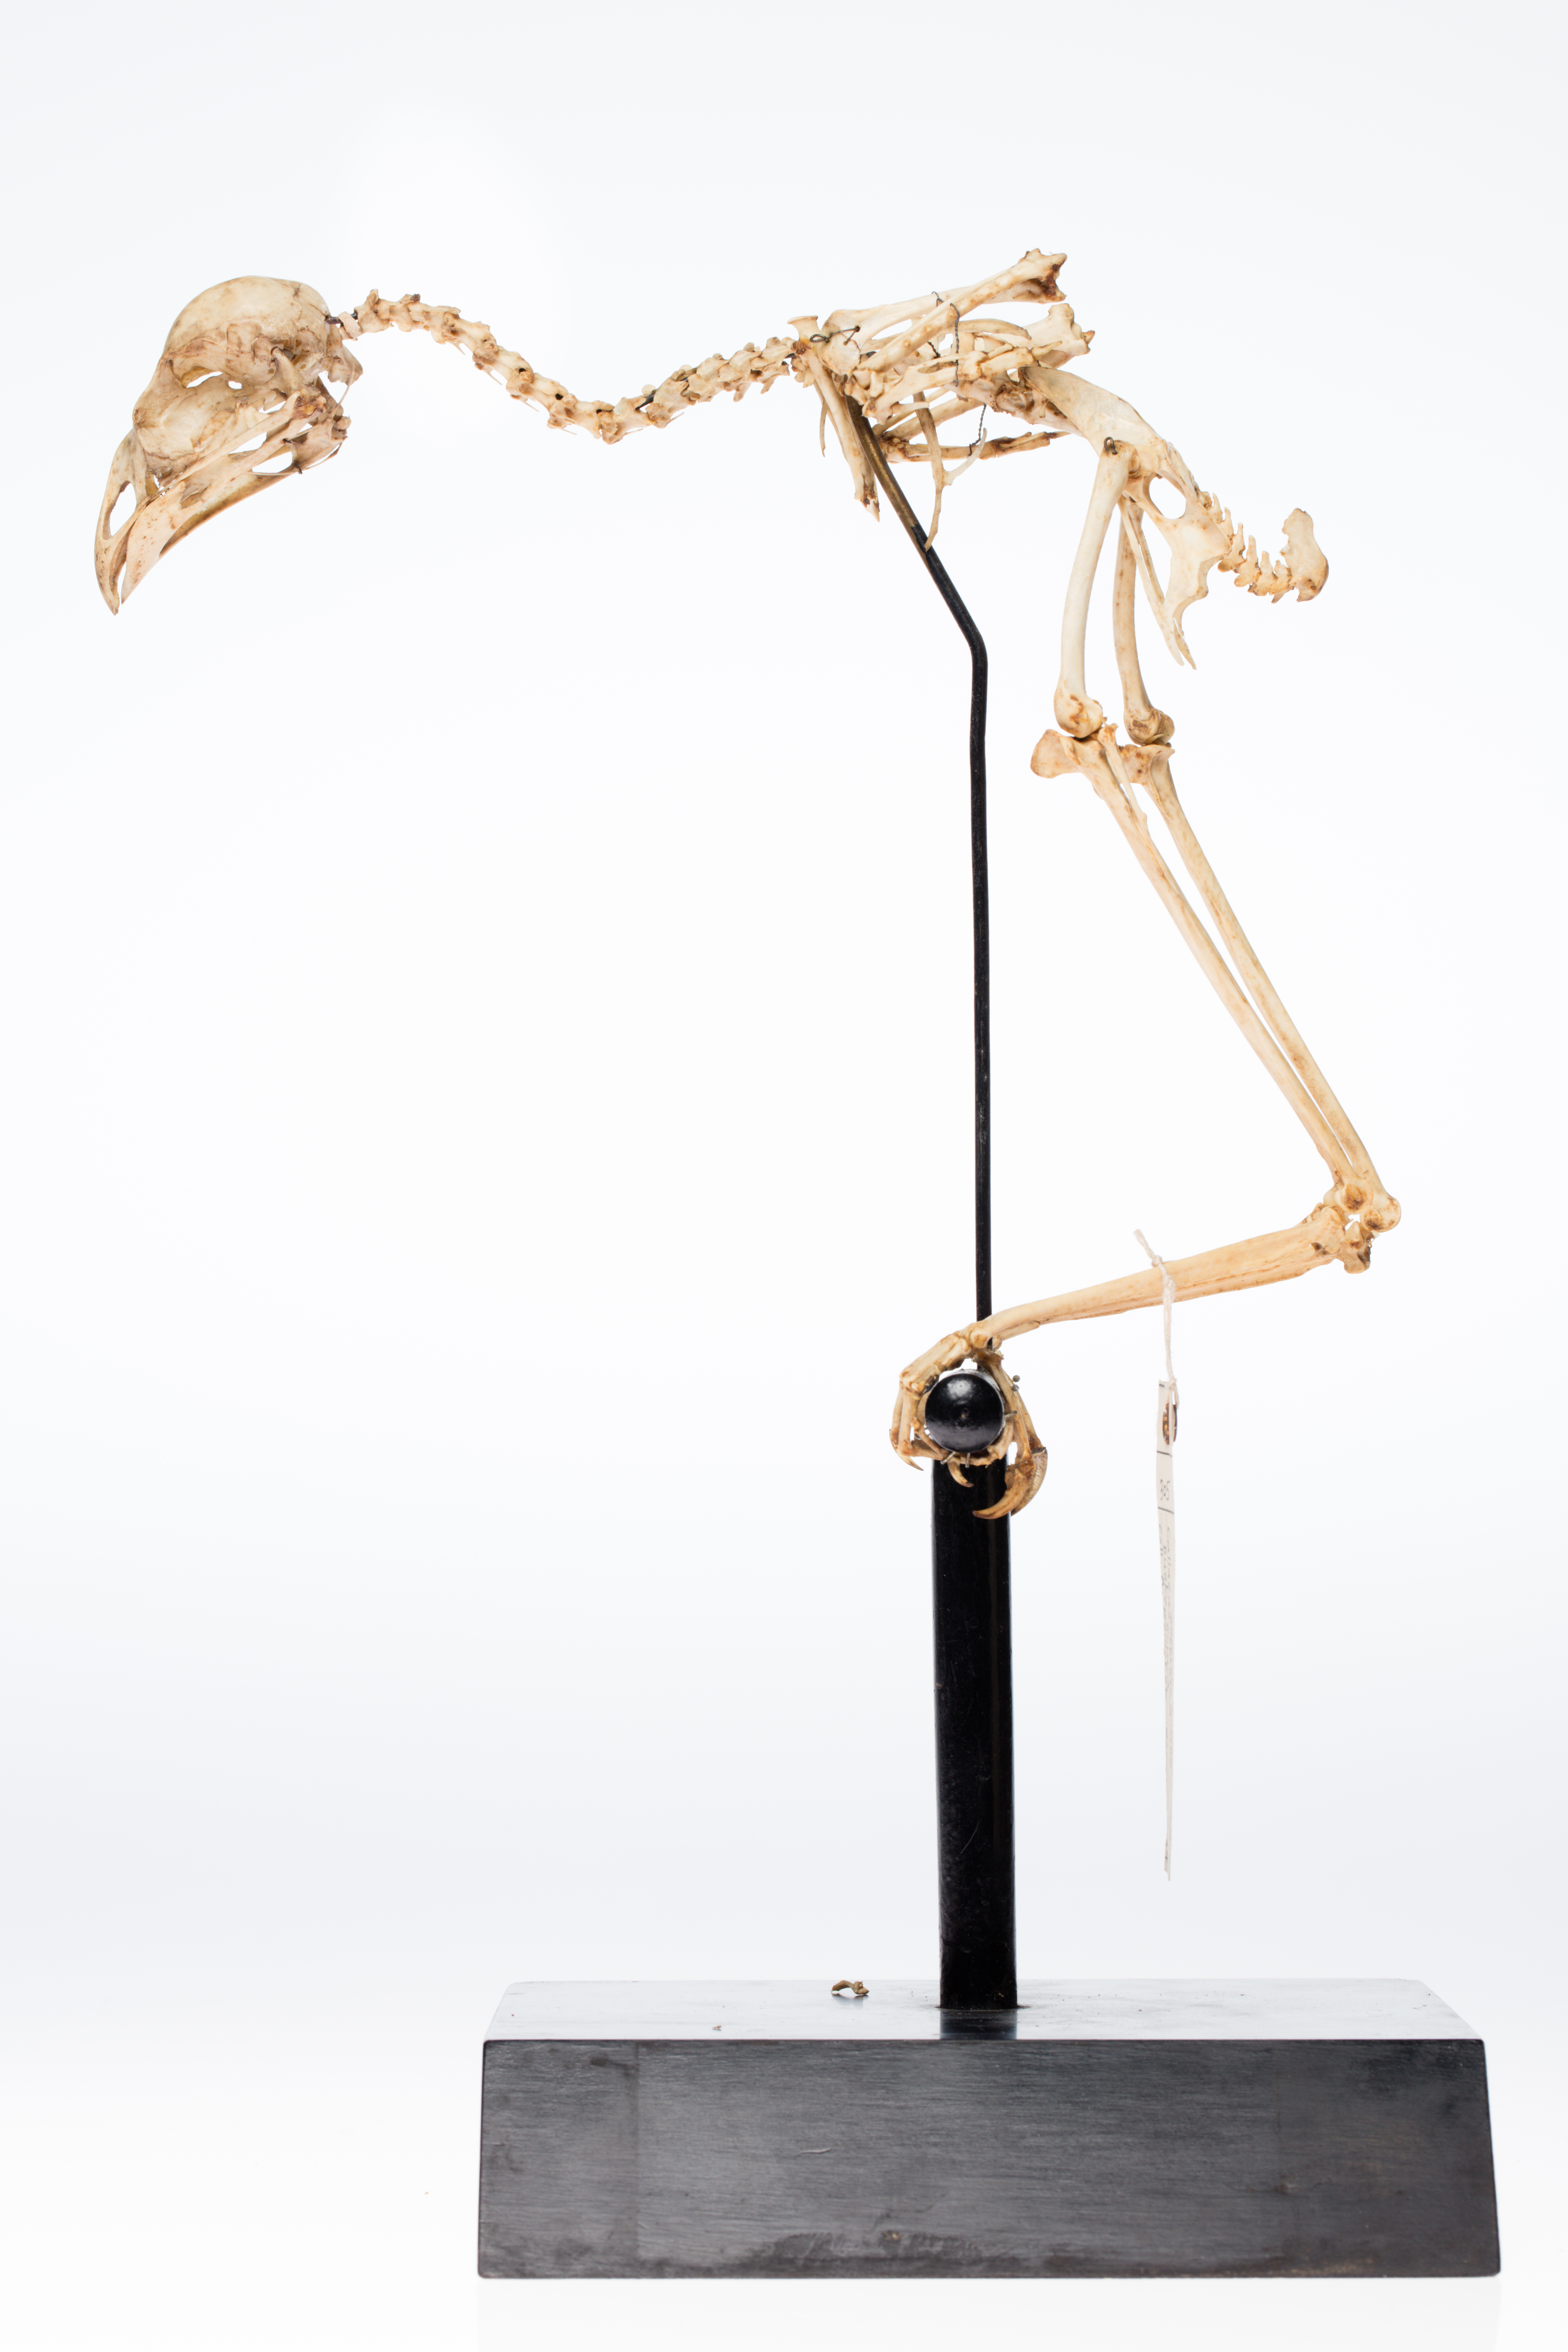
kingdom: Animalia
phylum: Chordata
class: Aves
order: Passeriformes
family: Callaeatidae
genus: Callaeas
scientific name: Callaeas cinereus
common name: South island kokako
